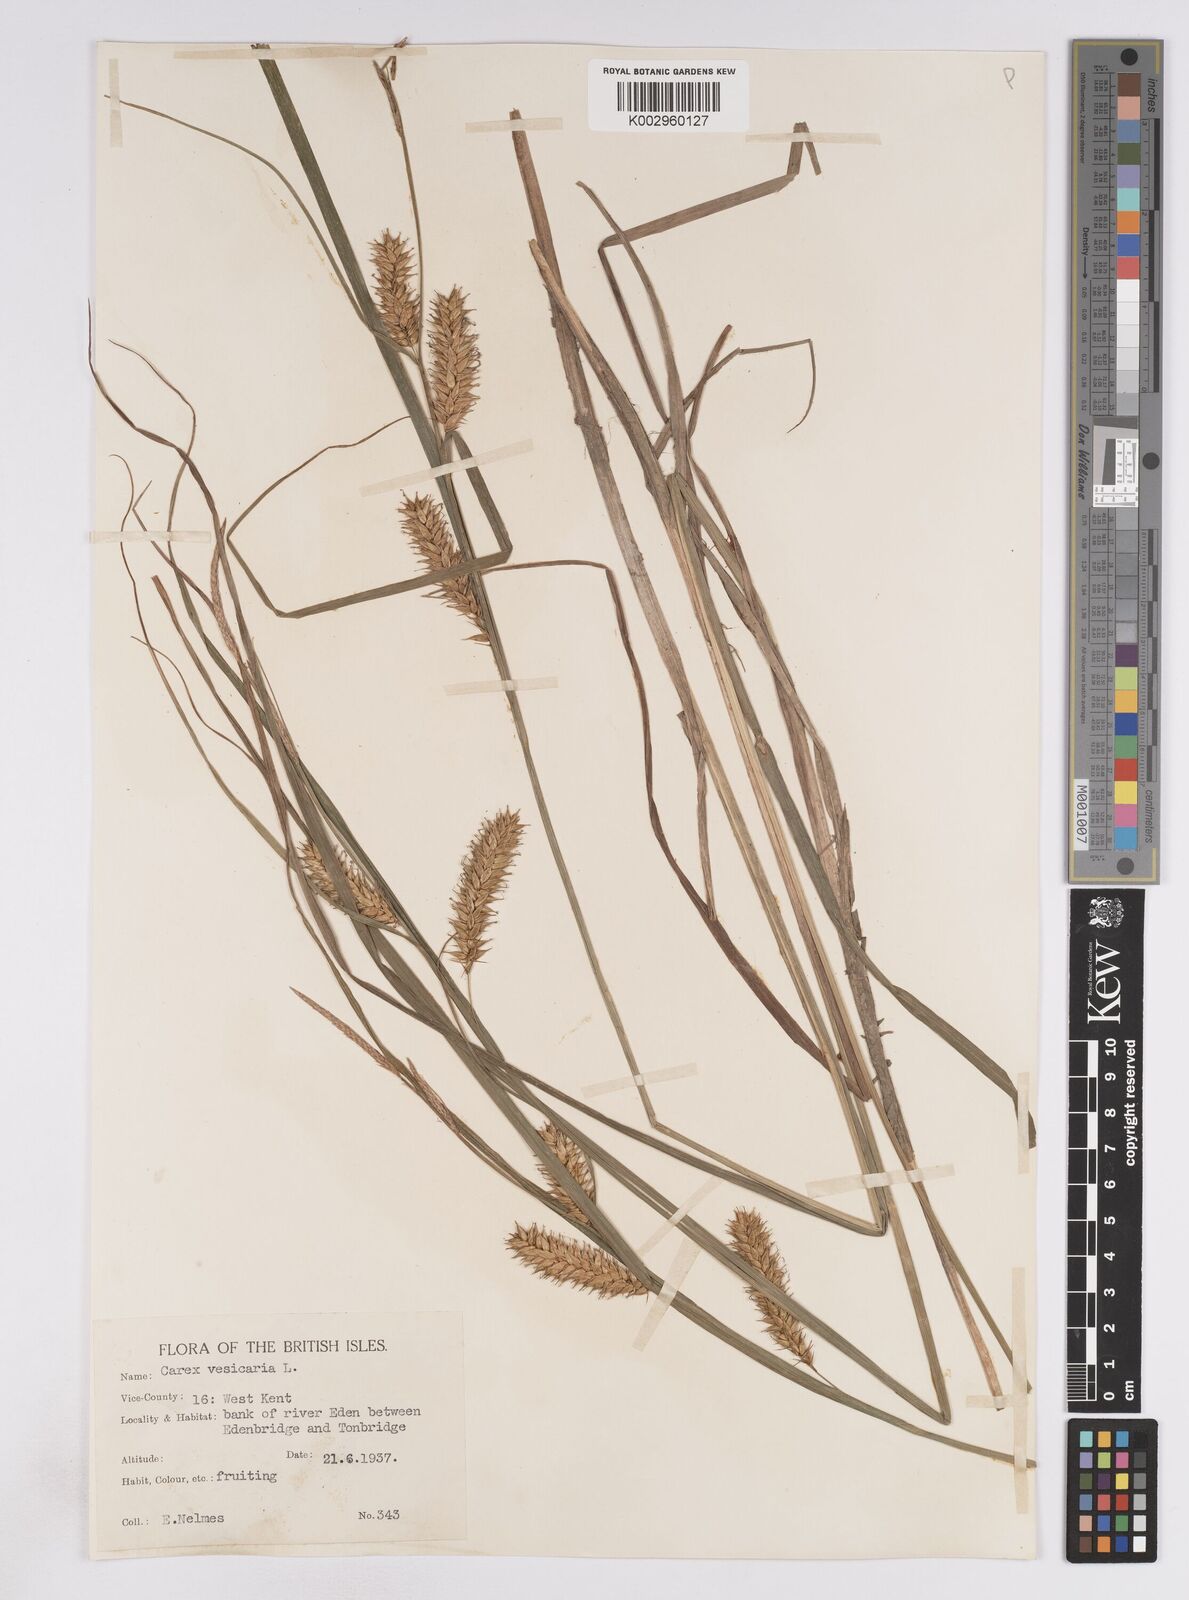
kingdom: Plantae
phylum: Tracheophyta
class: Liliopsida
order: Poales
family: Cyperaceae
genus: Carex
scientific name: Carex vesicaria
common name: Bladder-sedge
